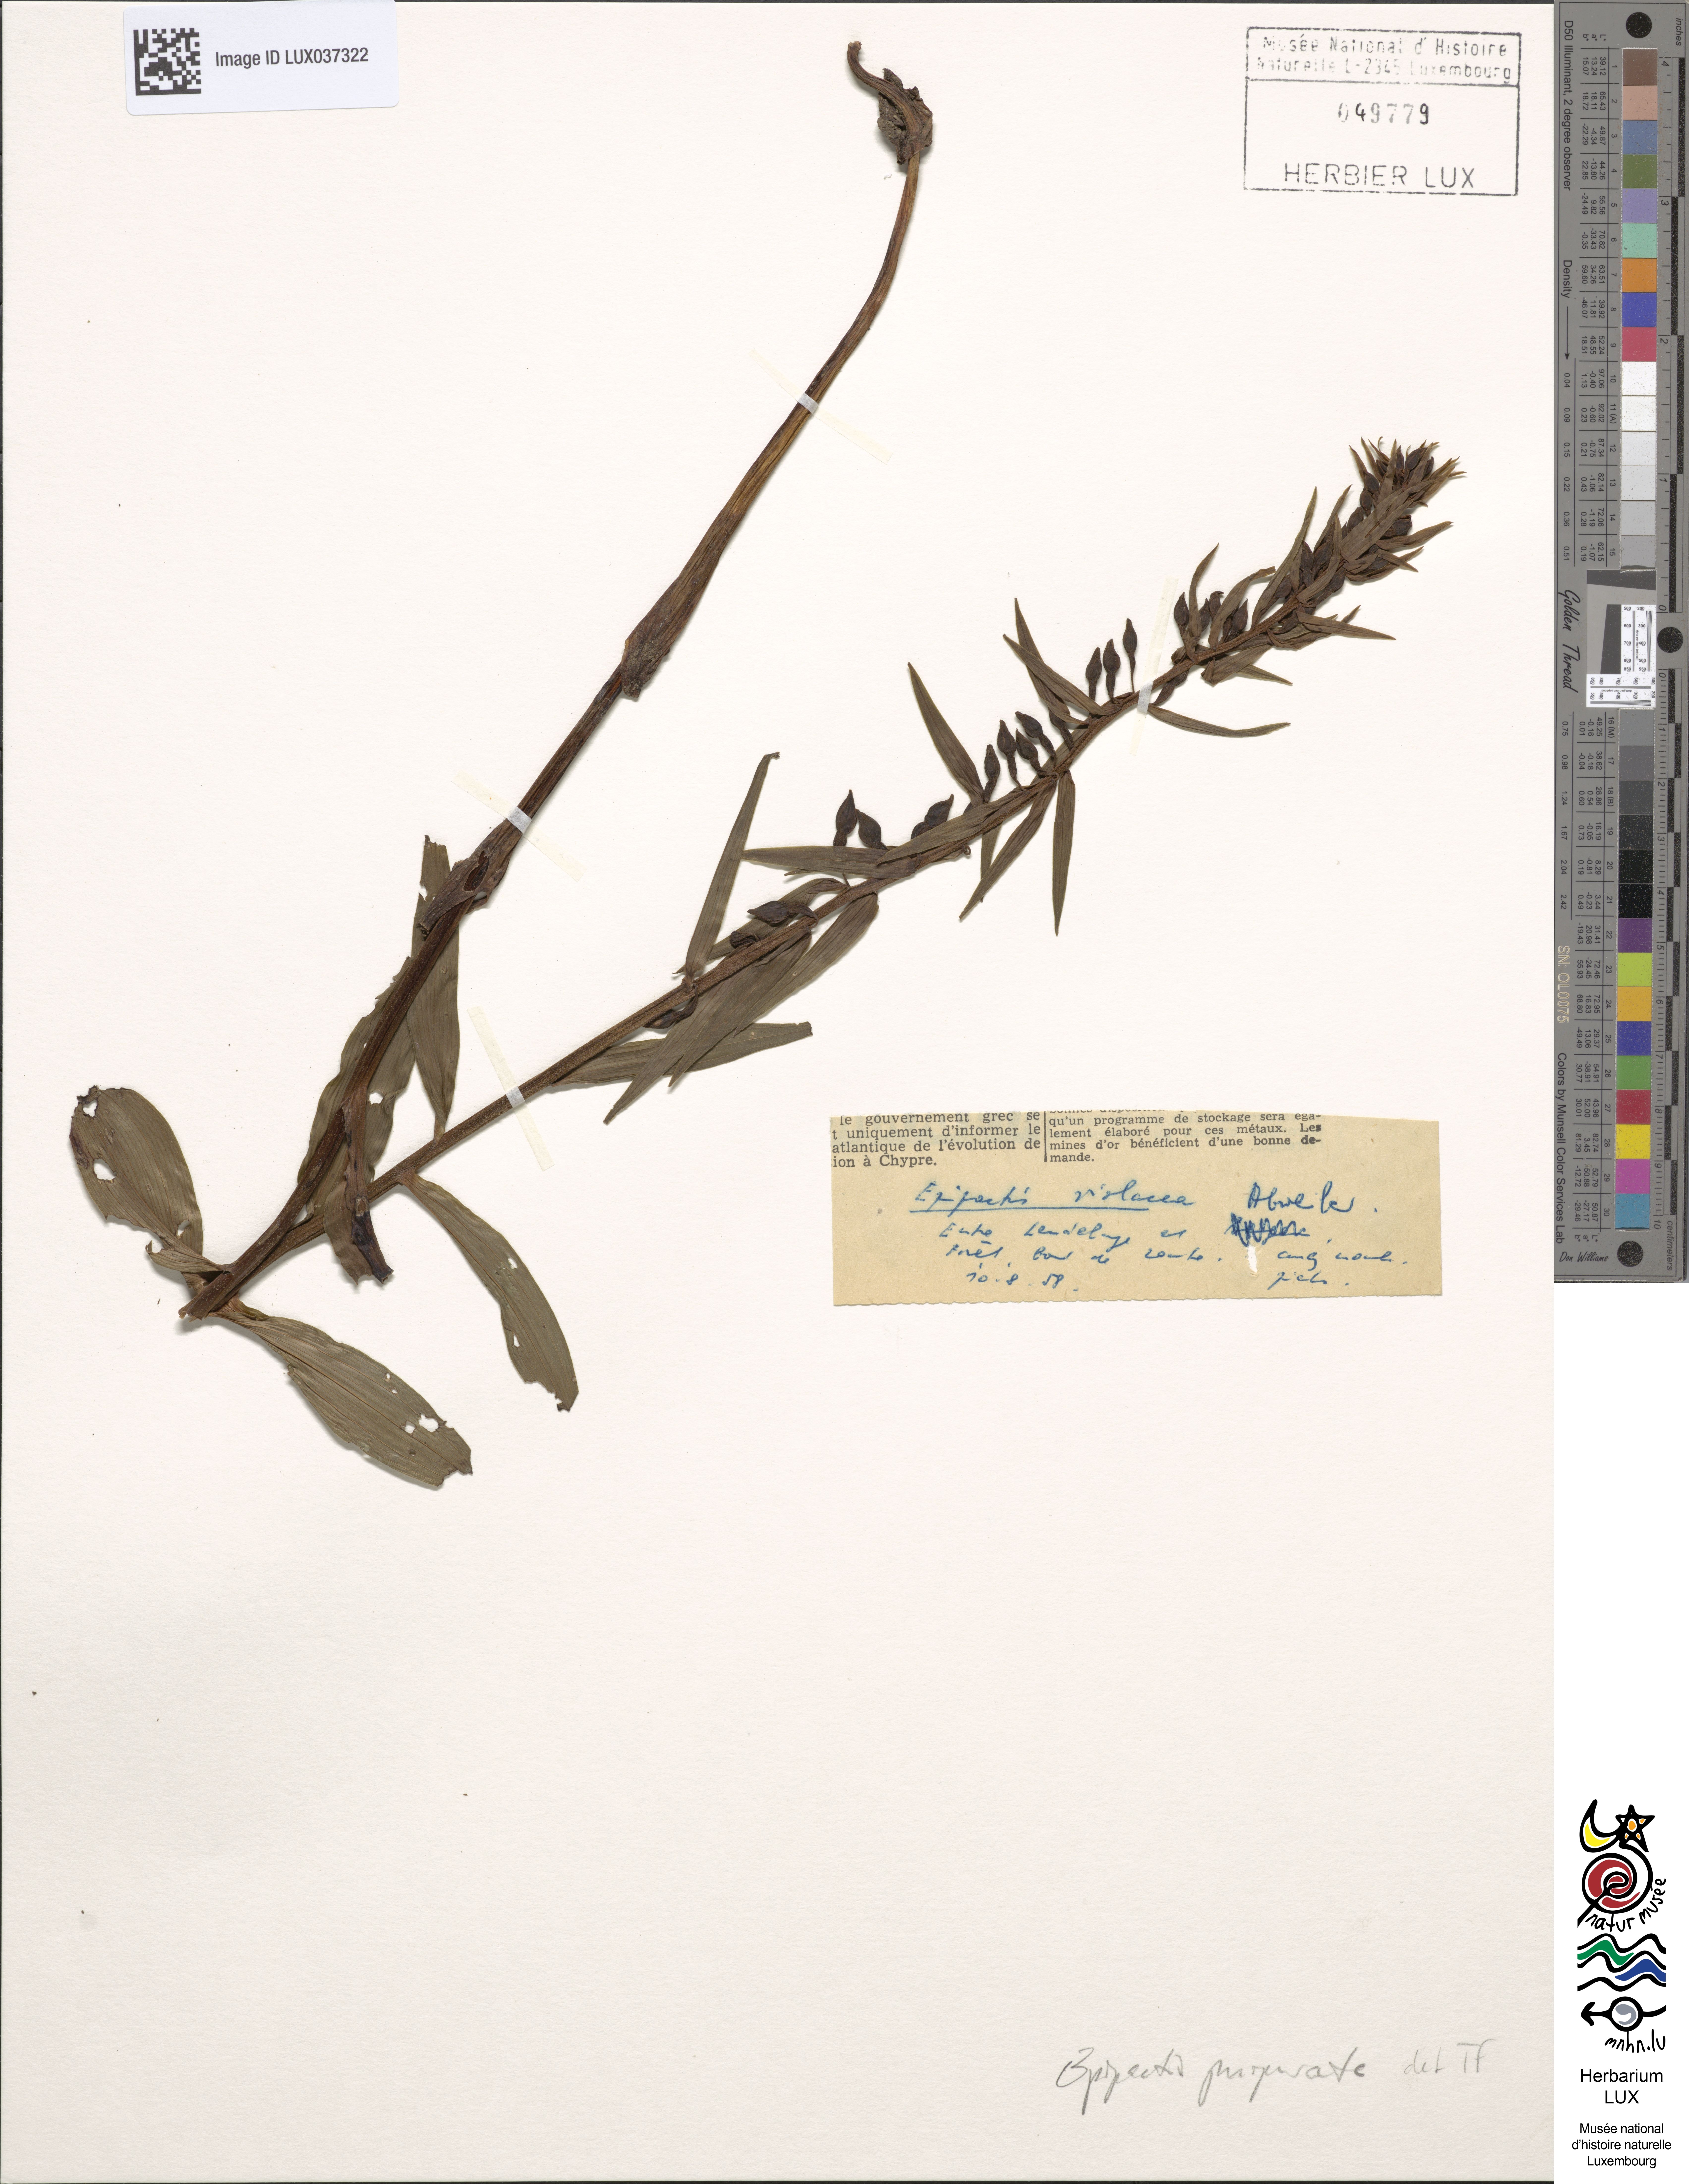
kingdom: Plantae
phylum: Tracheophyta
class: Liliopsida
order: Asparagales
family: Orchidaceae
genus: Epipactis
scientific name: Epipactis purpurata
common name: Violet helleborine
